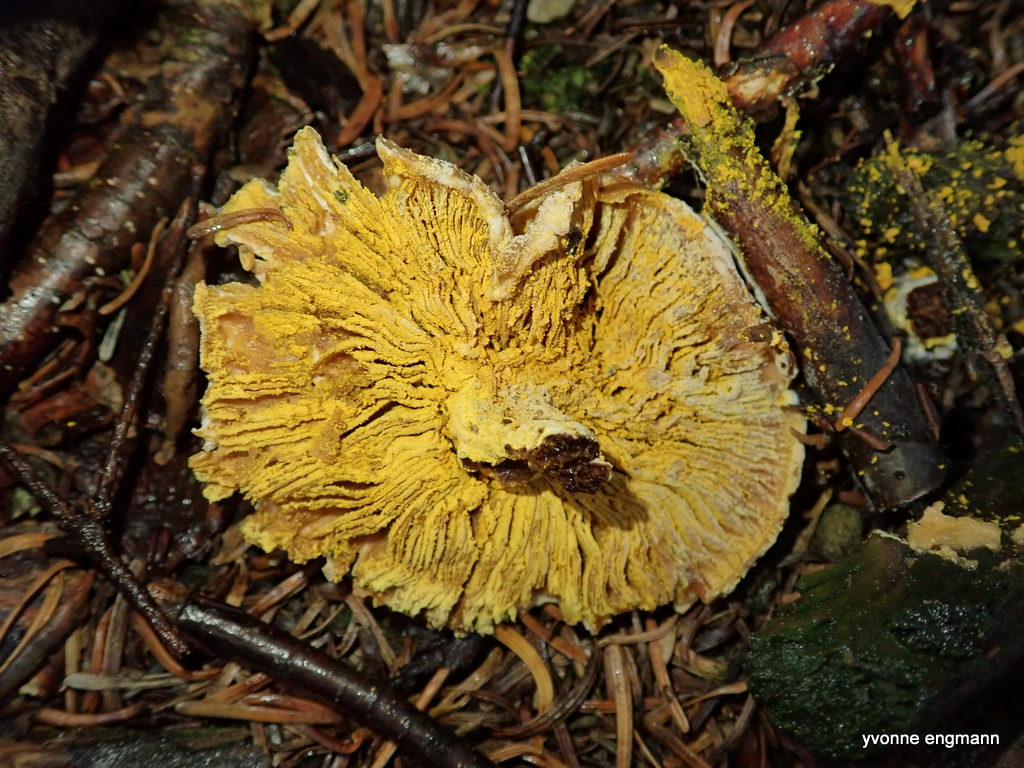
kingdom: Fungi
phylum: Ascomycota
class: Sordariomycetes
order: Hypocreales
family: Hypocreaceae
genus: Hypomyces
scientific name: Hypomyces
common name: snylteskorpe
